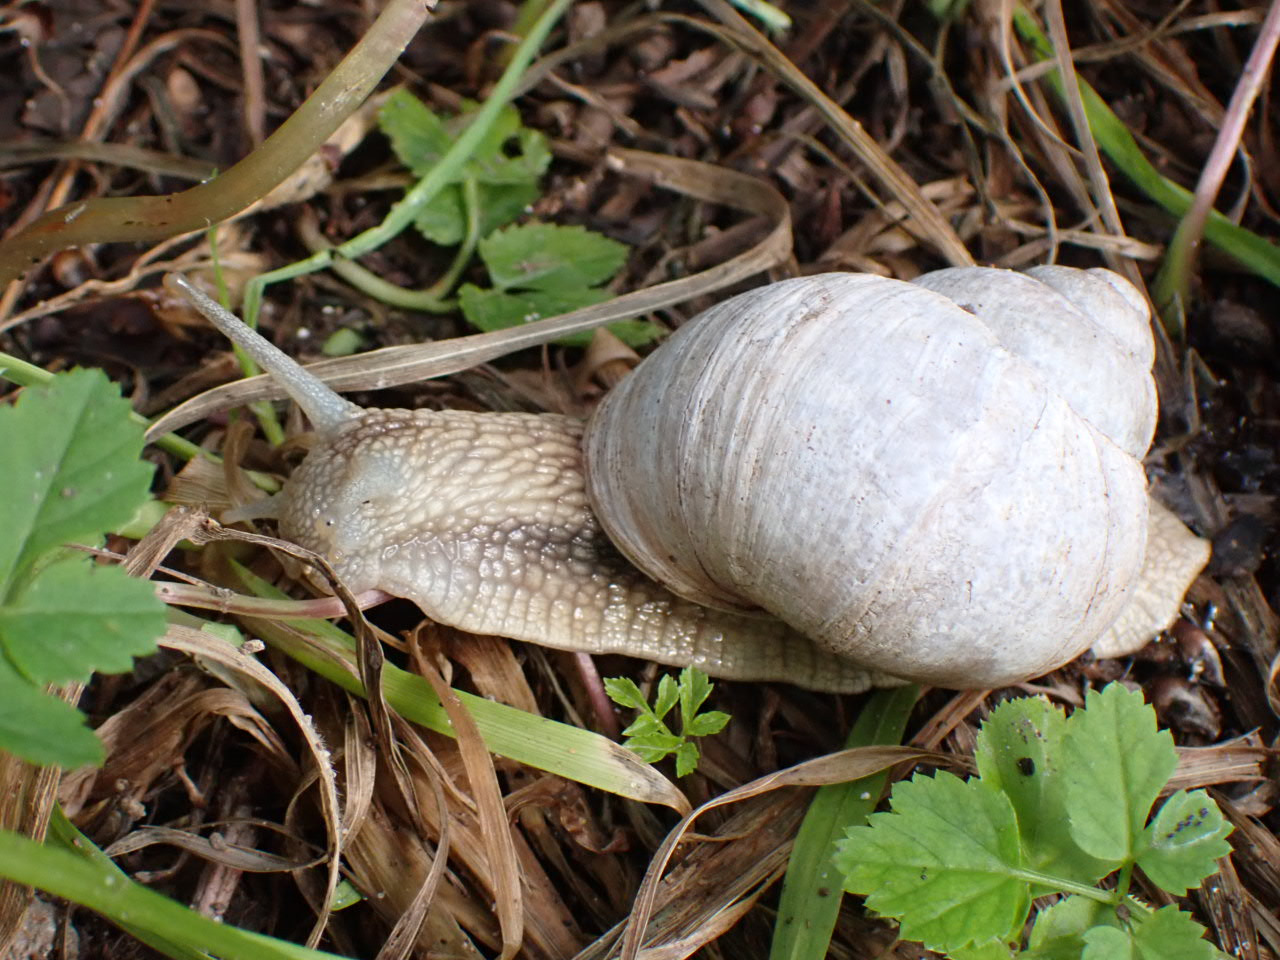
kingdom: Animalia
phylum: Mollusca
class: Gastropoda
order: Stylommatophora
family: Helicidae
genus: Helix
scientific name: Helix pomatia
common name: Vinbjergsnegl
